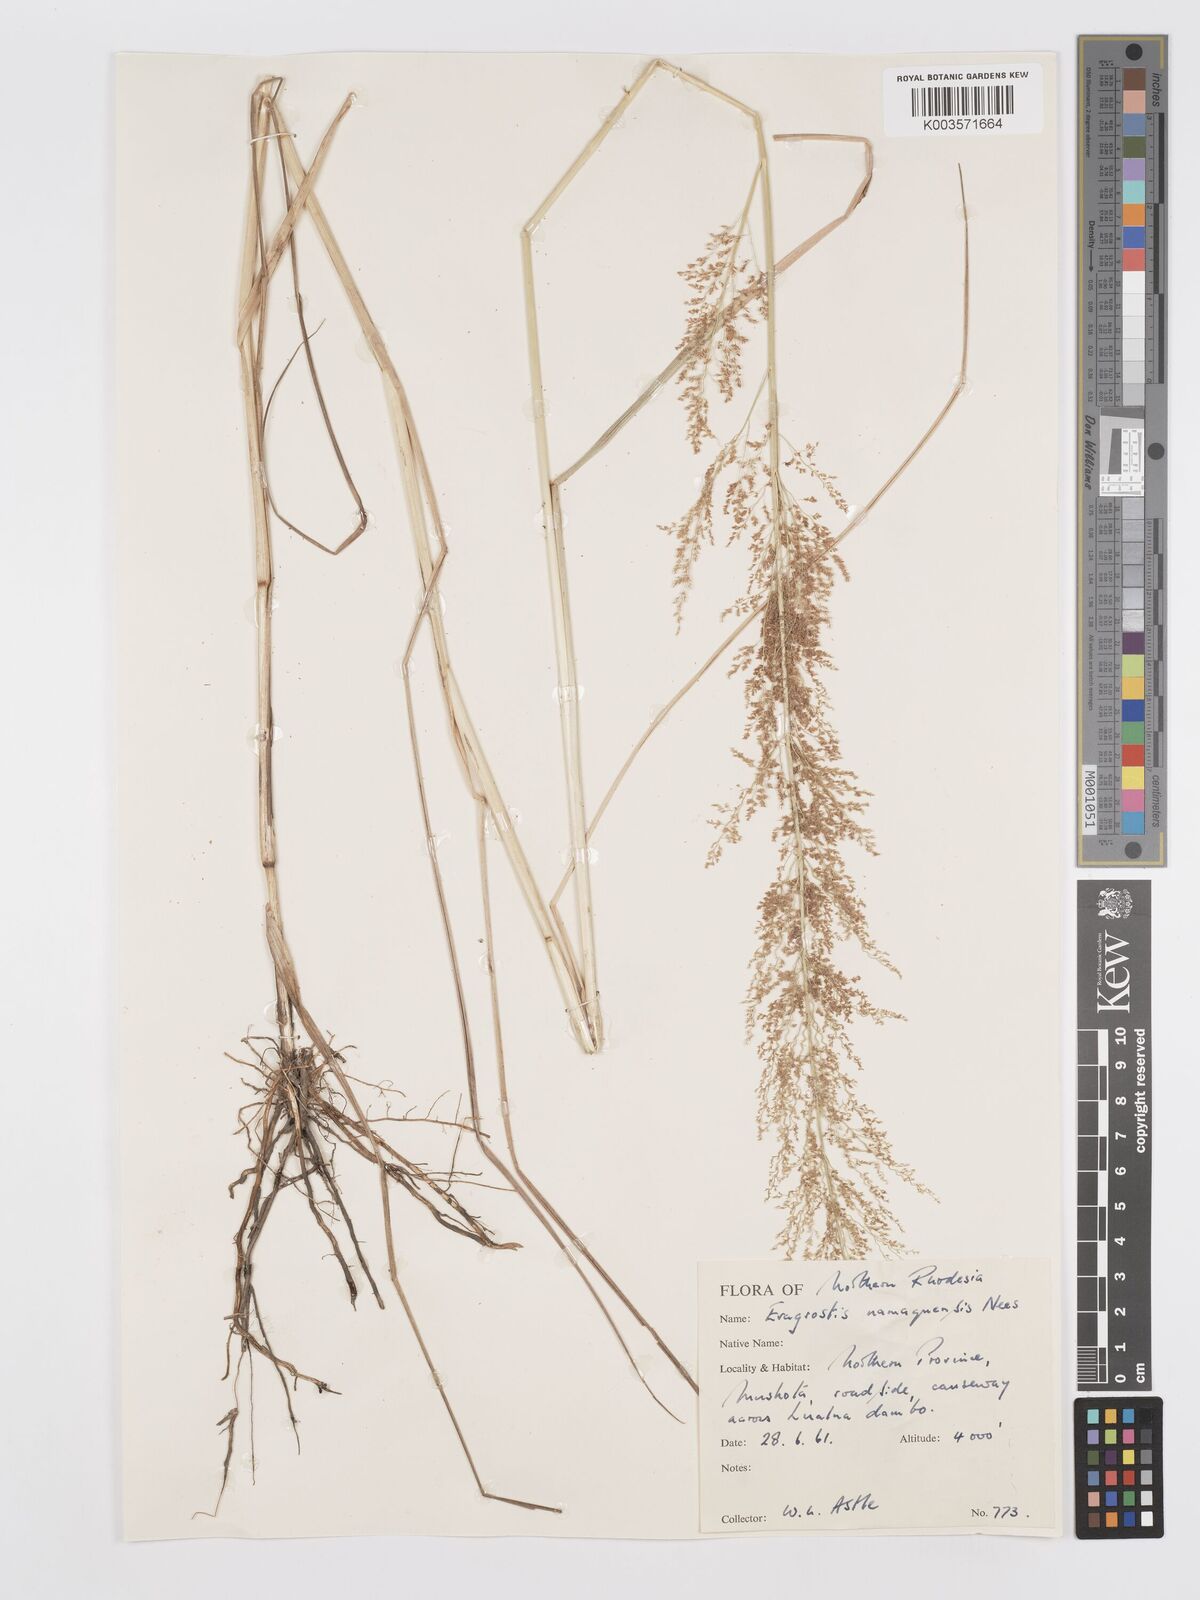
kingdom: Plantae
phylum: Tracheophyta
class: Liliopsida
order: Poales
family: Poaceae
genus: Eragrostis
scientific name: Eragrostis japonica
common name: Pond lovegrass
